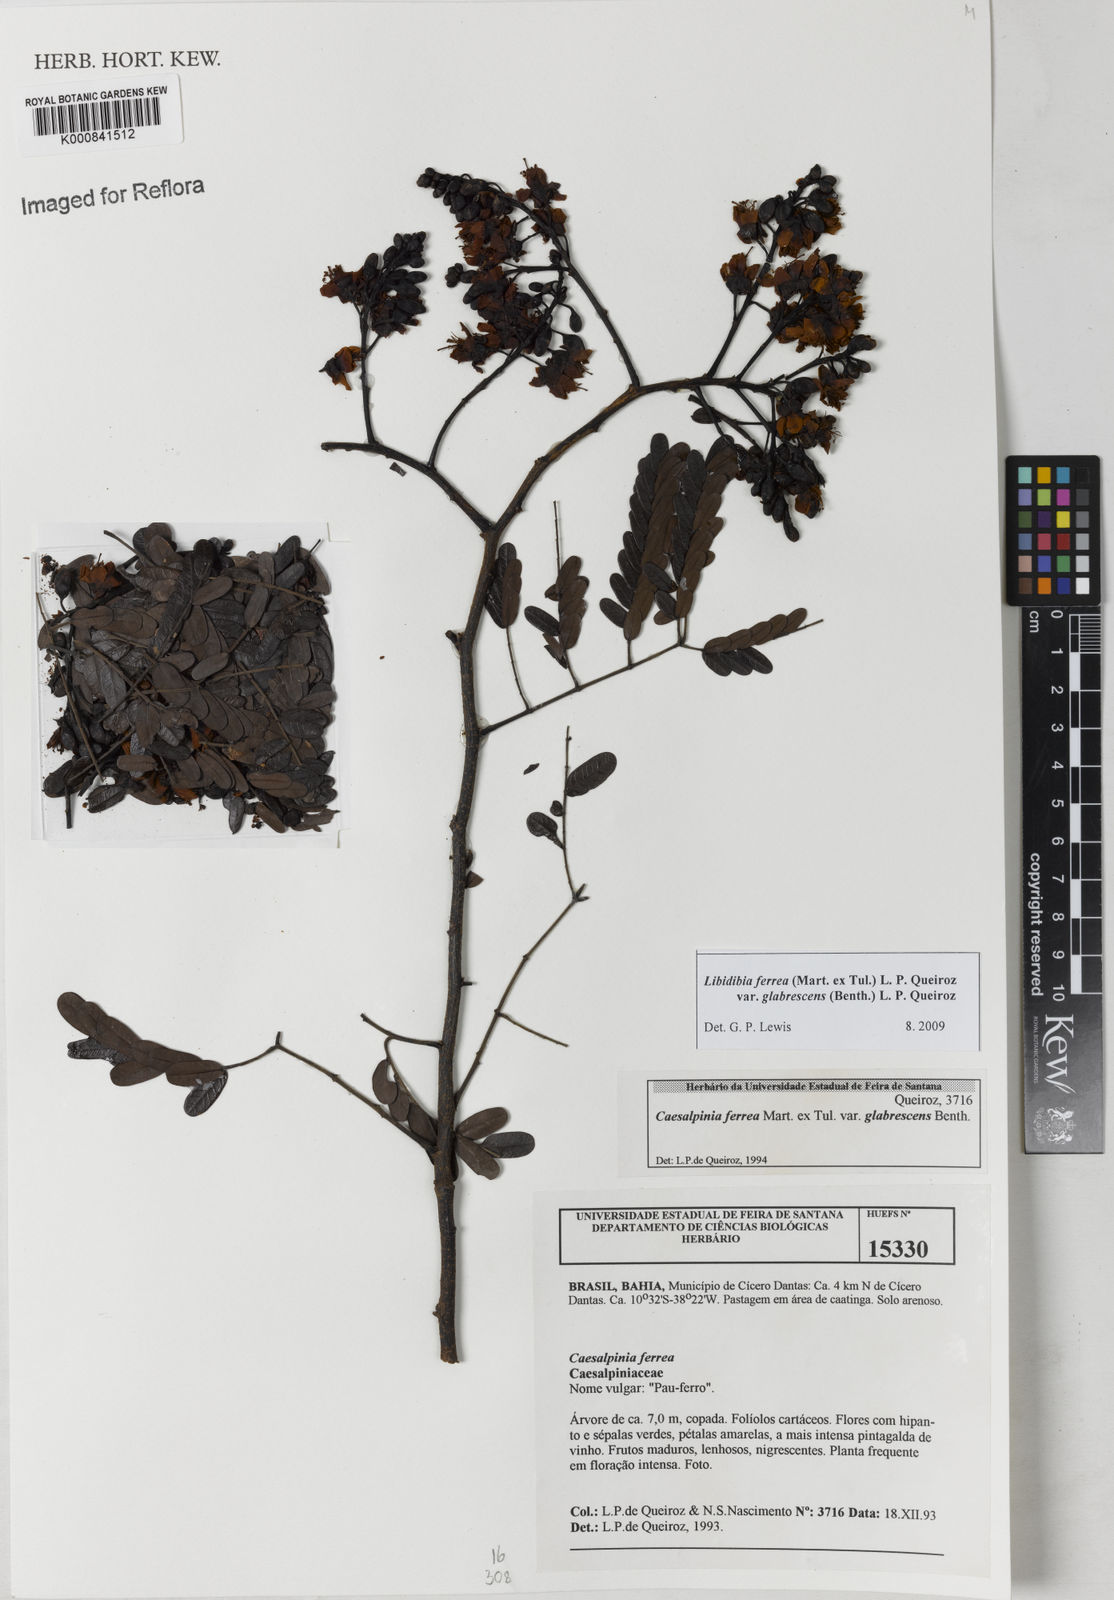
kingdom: Plantae
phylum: Tracheophyta
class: Magnoliopsida
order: Fabales
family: Fabaceae
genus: Libidibia
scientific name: Libidibia ferrea
